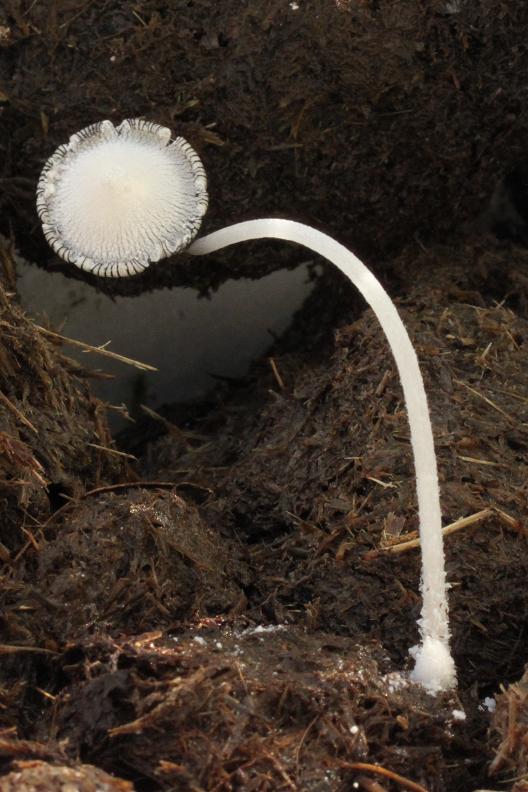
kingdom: Fungi
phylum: Basidiomycota
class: Agaricomycetes
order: Agaricales
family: Psathyrellaceae
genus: Coprinopsis
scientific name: Coprinopsis nivea
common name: snehvid blækhat
